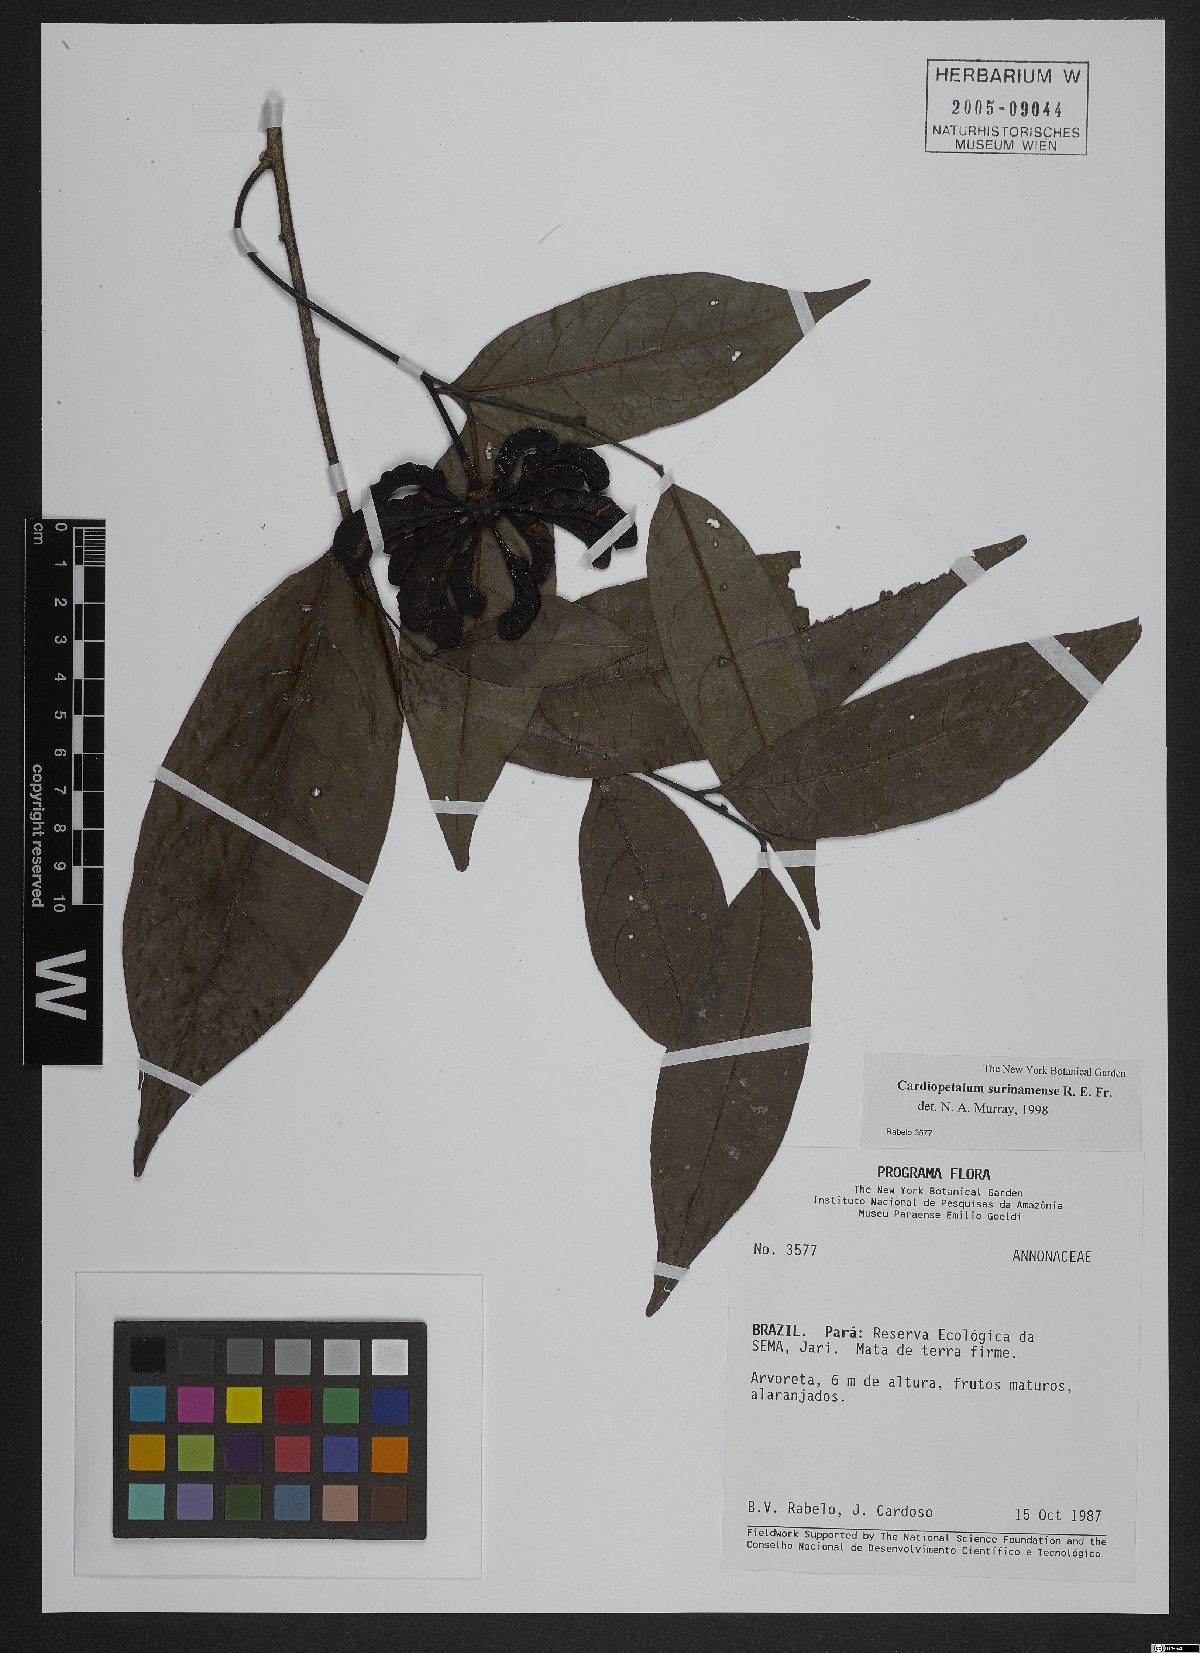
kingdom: Plantae
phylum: Tracheophyta
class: Magnoliopsida
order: Magnoliales
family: Annonaceae
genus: Cardiopetalum
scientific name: Cardiopetalum surinamense
